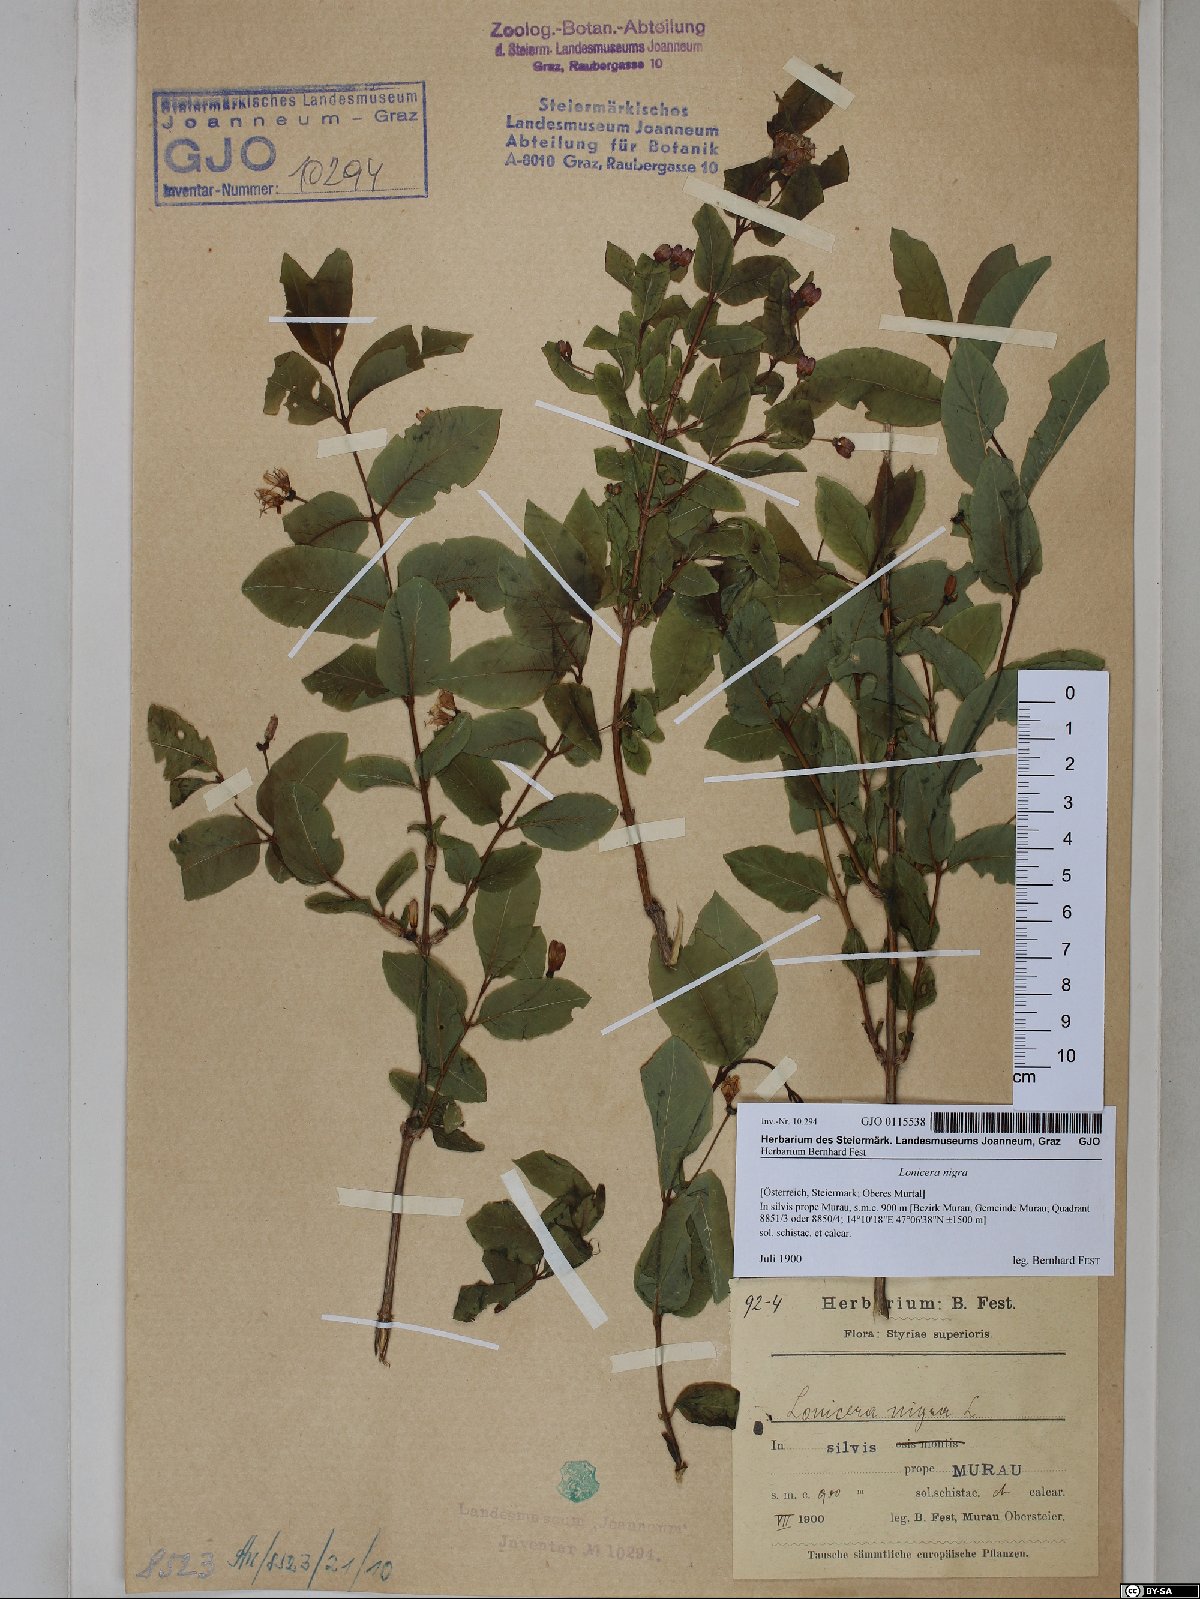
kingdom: Plantae
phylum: Tracheophyta
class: Magnoliopsida
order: Dipsacales
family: Caprifoliaceae
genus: Lonicera
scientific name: Lonicera nigra
